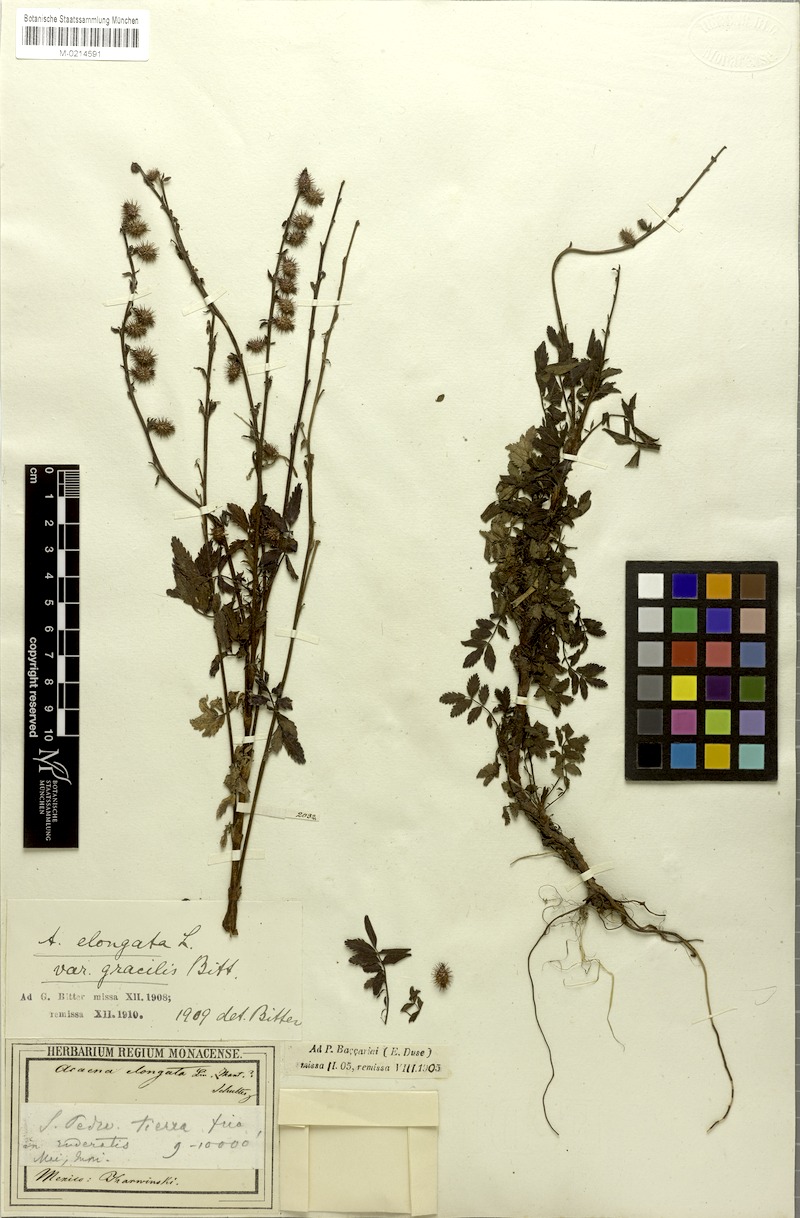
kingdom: Plantae
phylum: Tracheophyta
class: Magnoliopsida
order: Rosales
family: Rosaceae
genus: Acaena
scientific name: Acaena elongata
